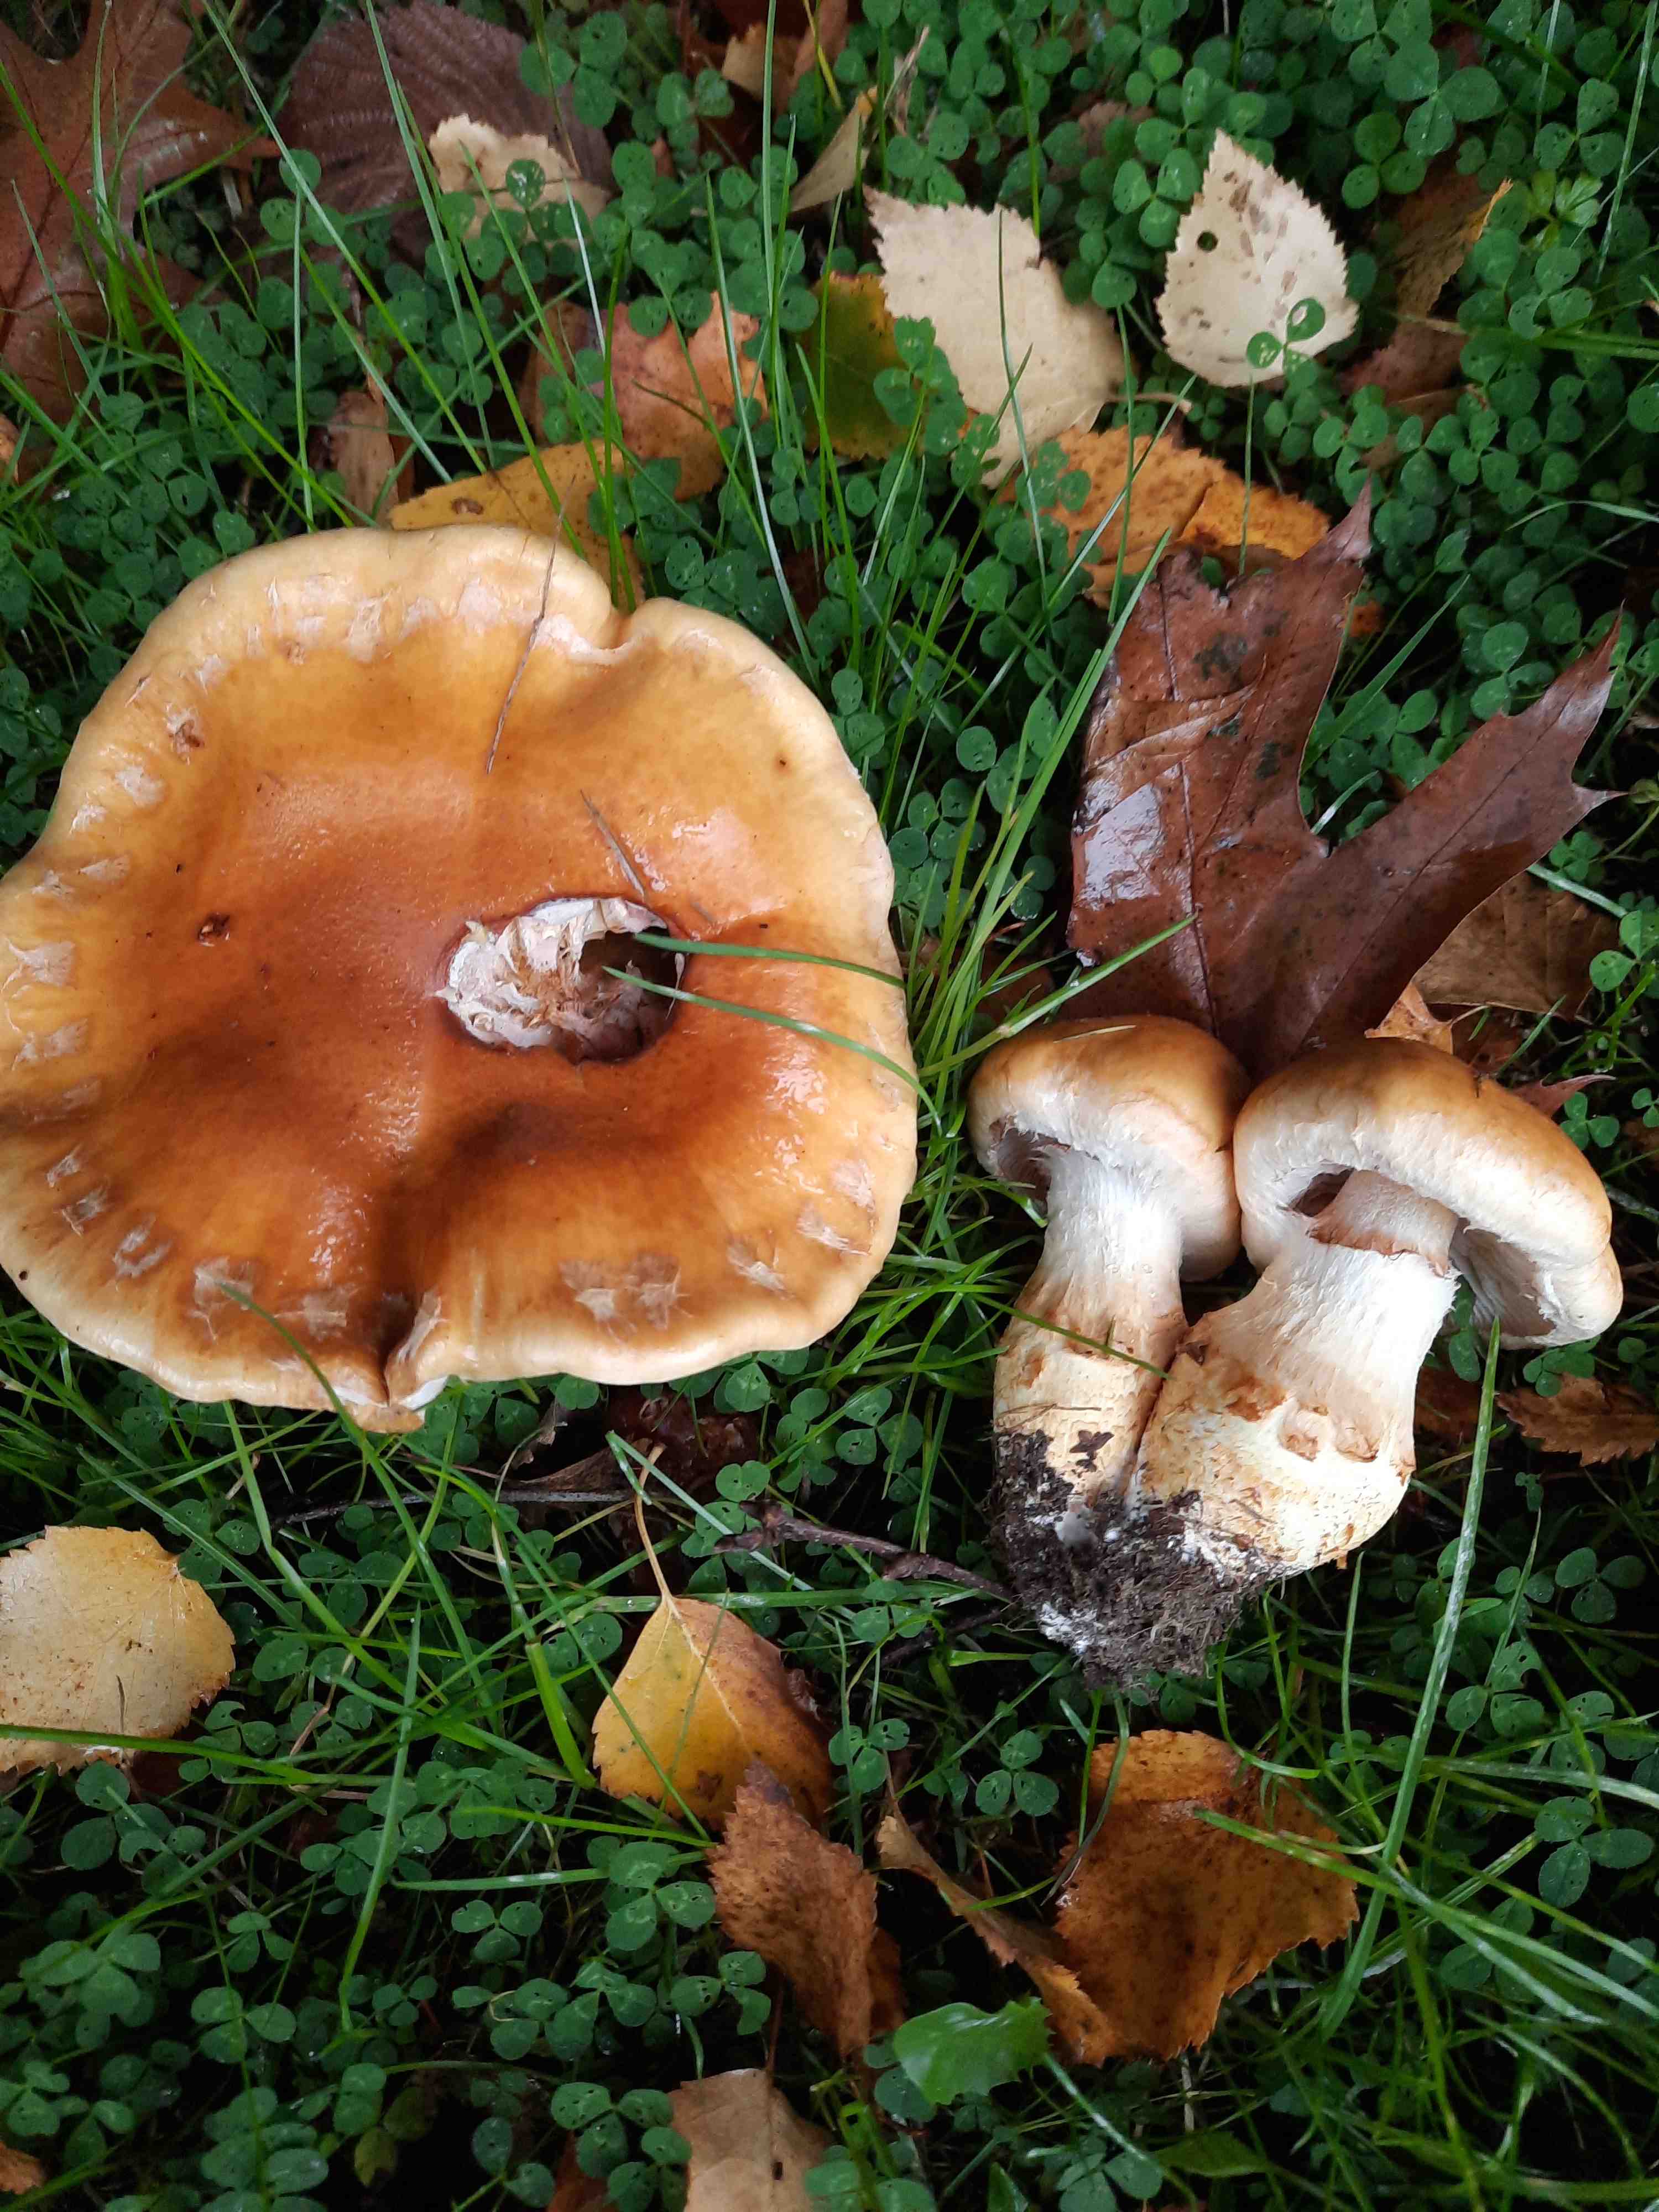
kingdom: Fungi
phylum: Basidiomycota
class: Agaricomycetes
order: Agaricales
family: Cortinariaceae
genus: Phlegmacium
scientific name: Phlegmacium triumphans
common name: gulbæltet slørhat
